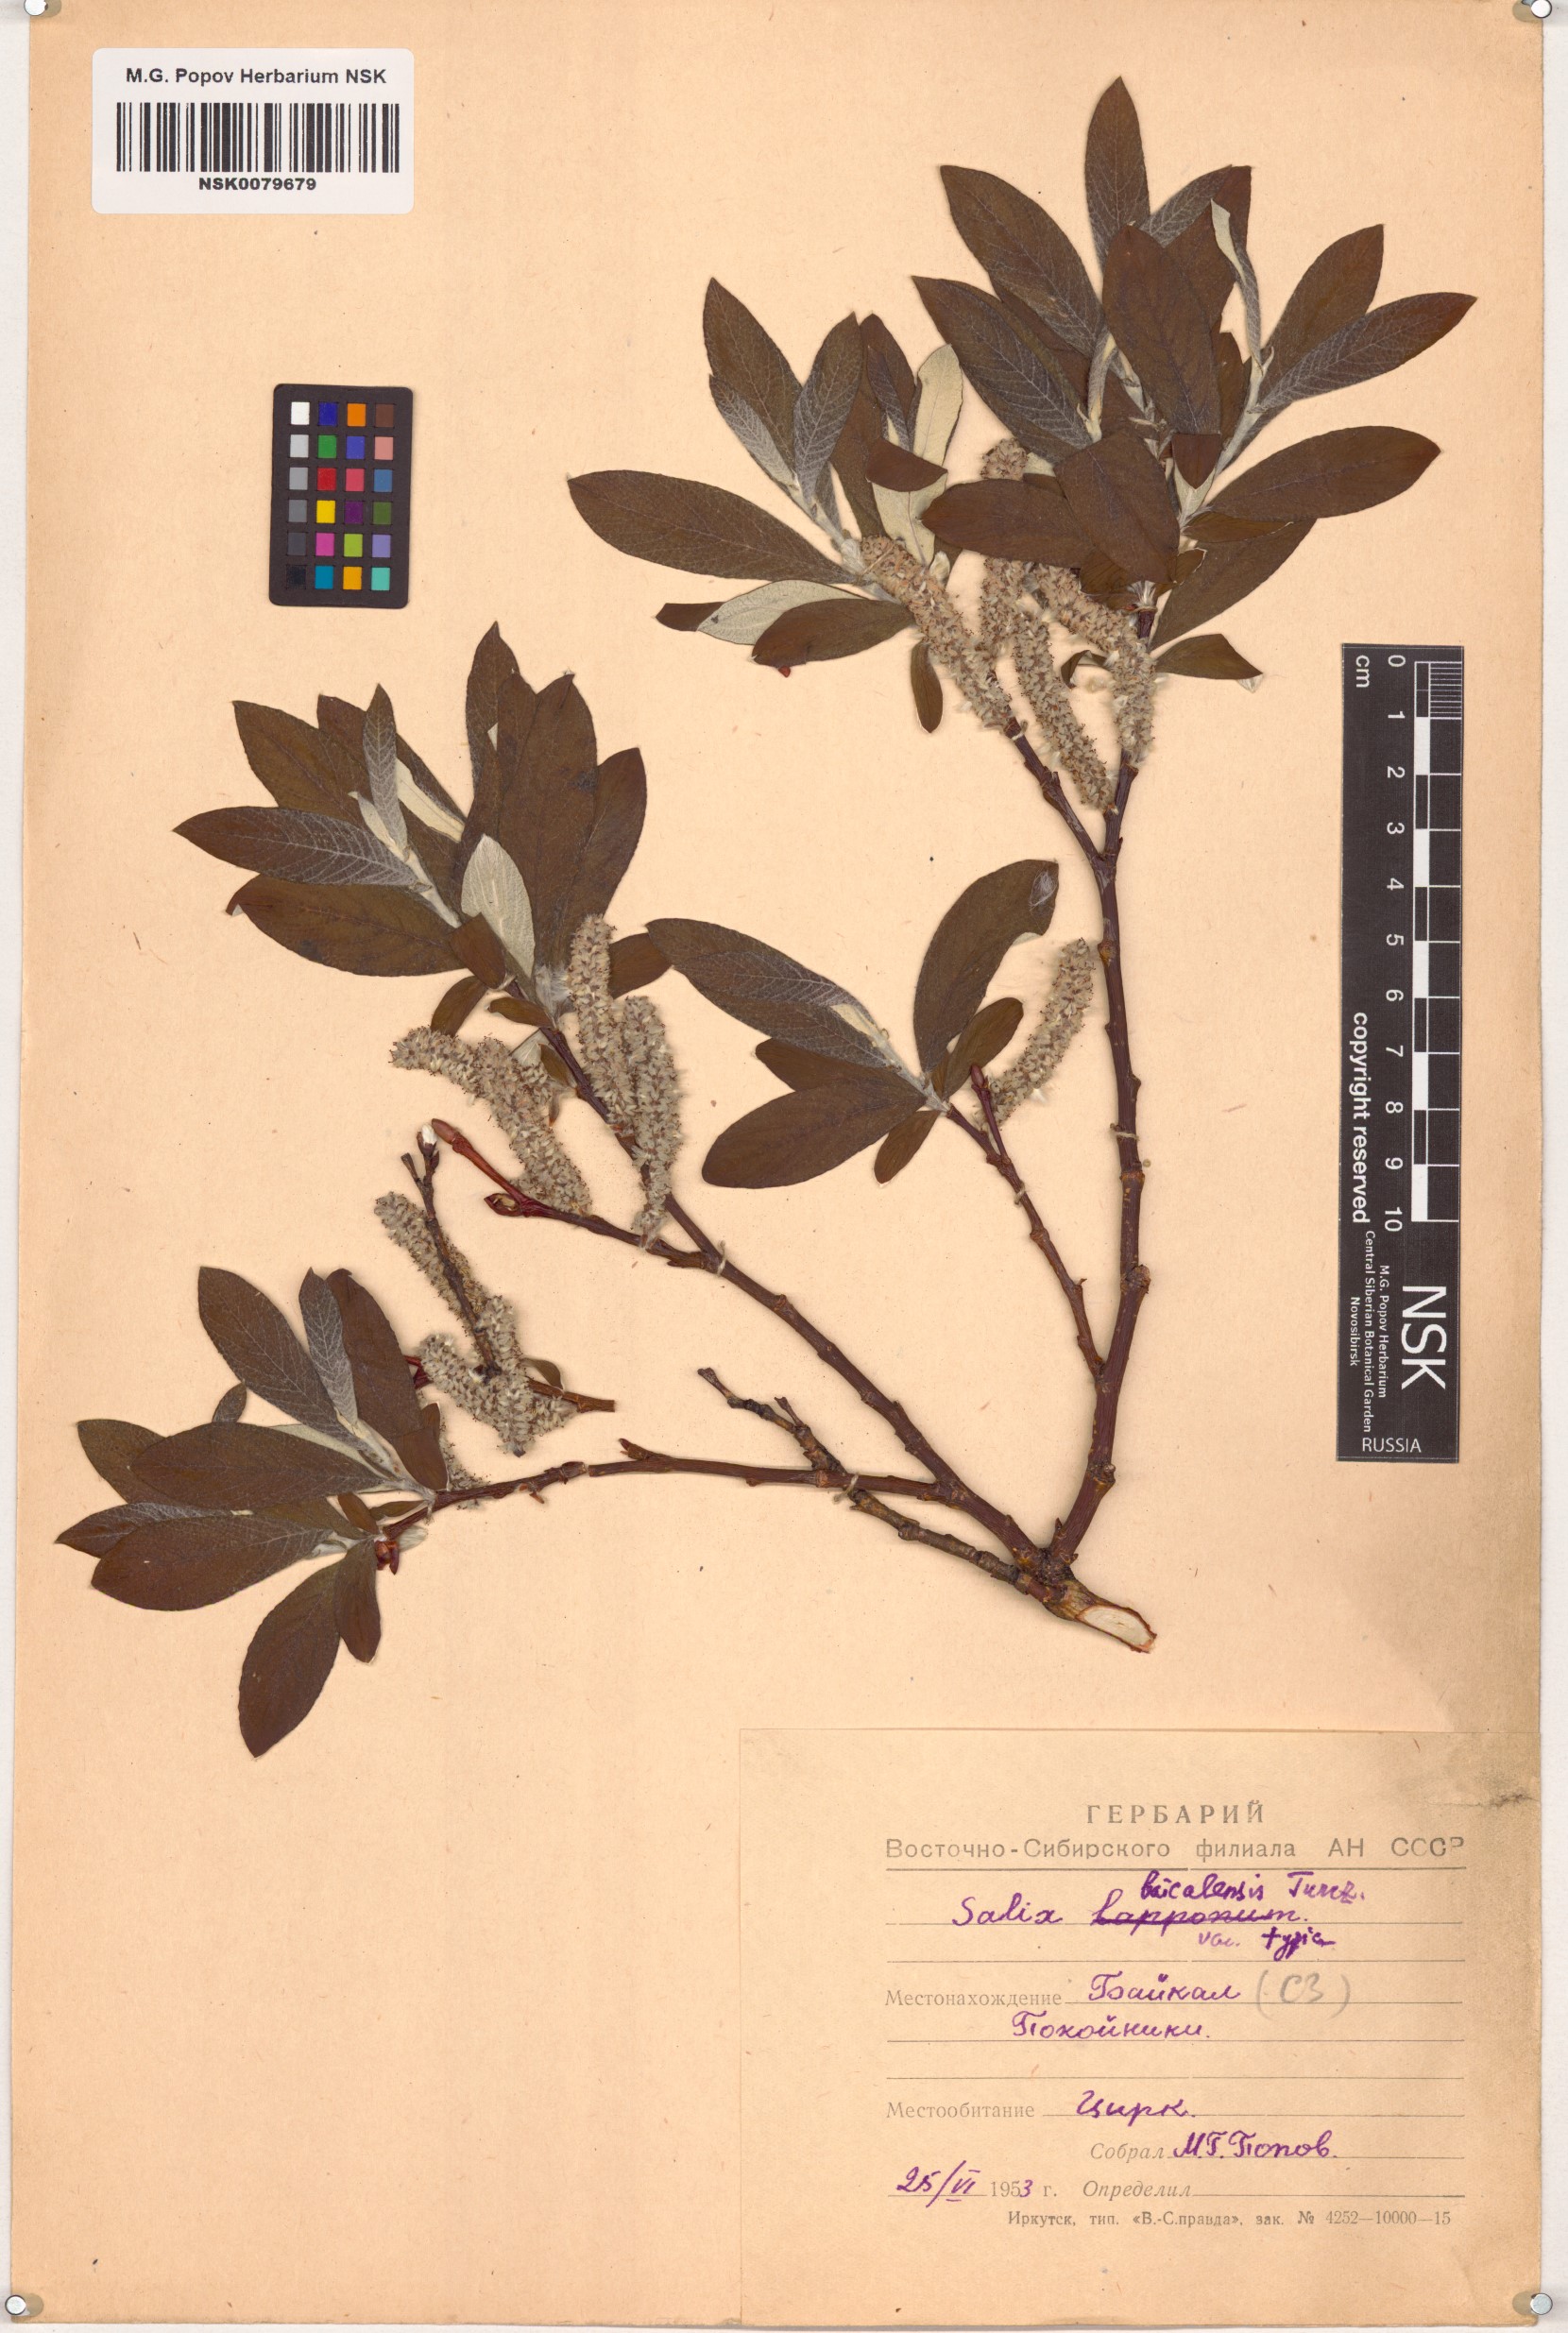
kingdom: Plantae
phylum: Tracheophyta
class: Magnoliopsida
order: Malpighiales
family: Salicaceae
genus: Salix
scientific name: Salix krylovii
